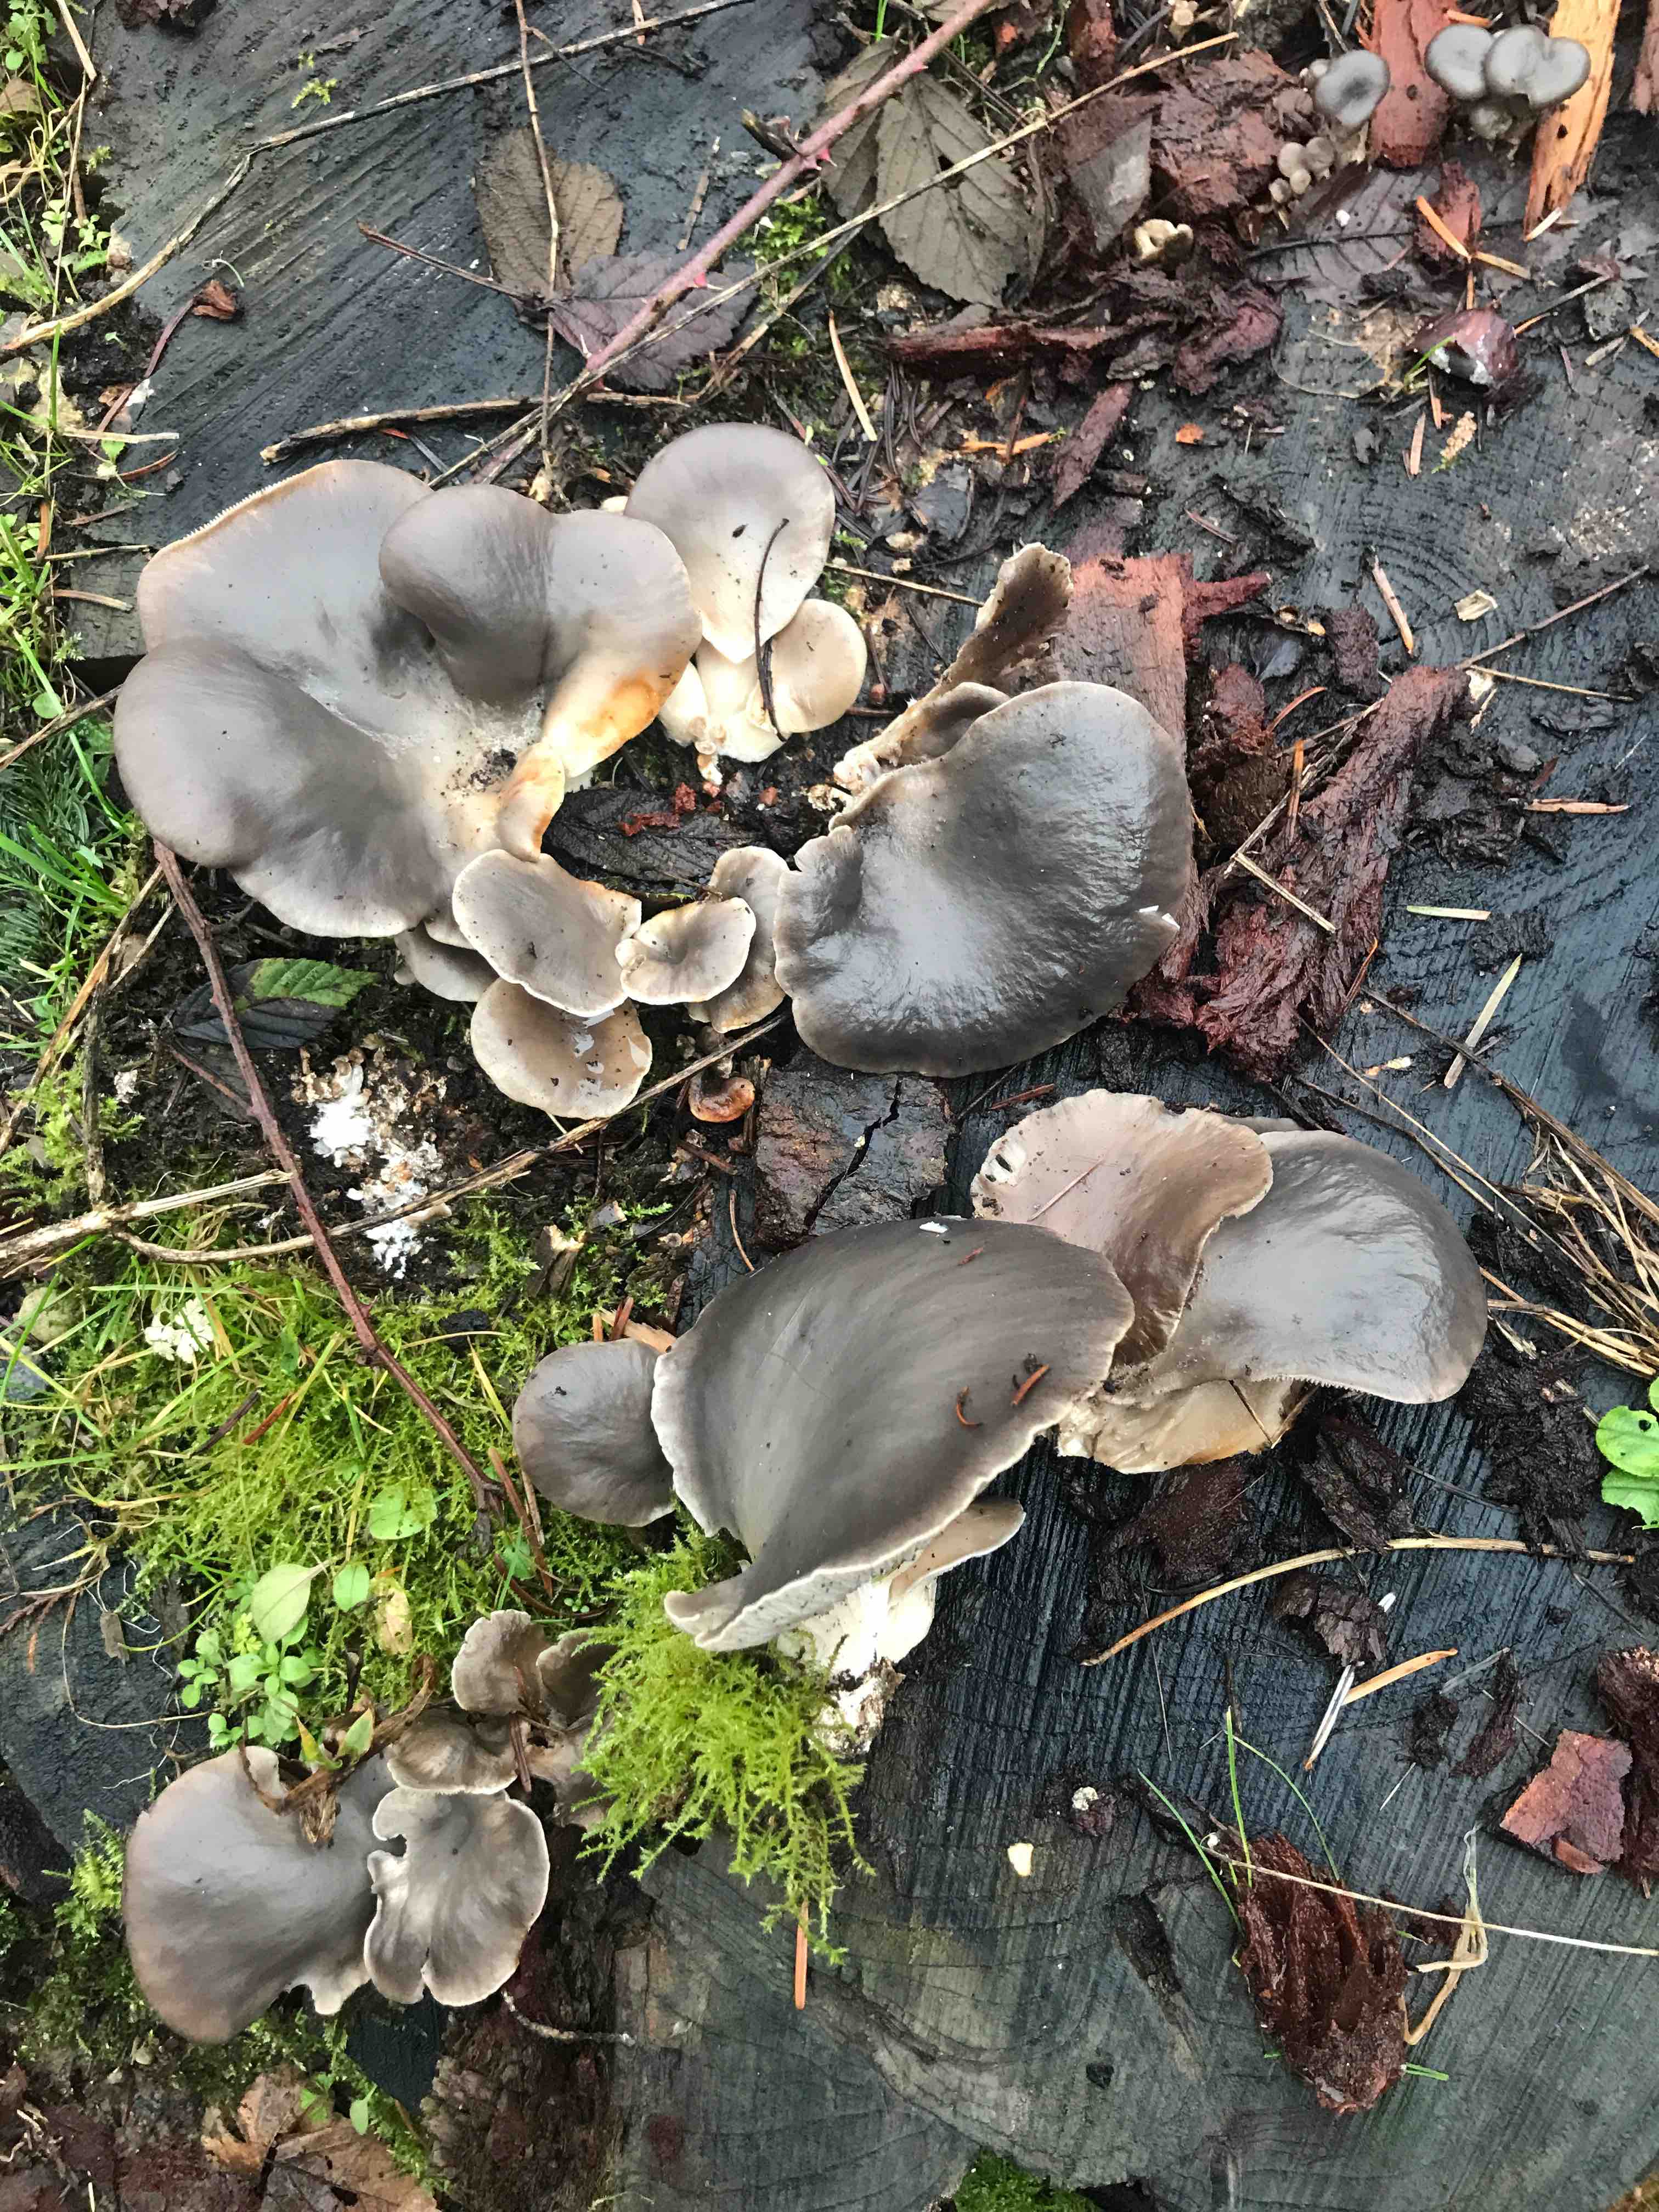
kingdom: Fungi
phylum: Basidiomycota
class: Agaricomycetes
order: Agaricales
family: Pleurotaceae
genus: Pleurotus
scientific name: Pleurotus ostreatus
